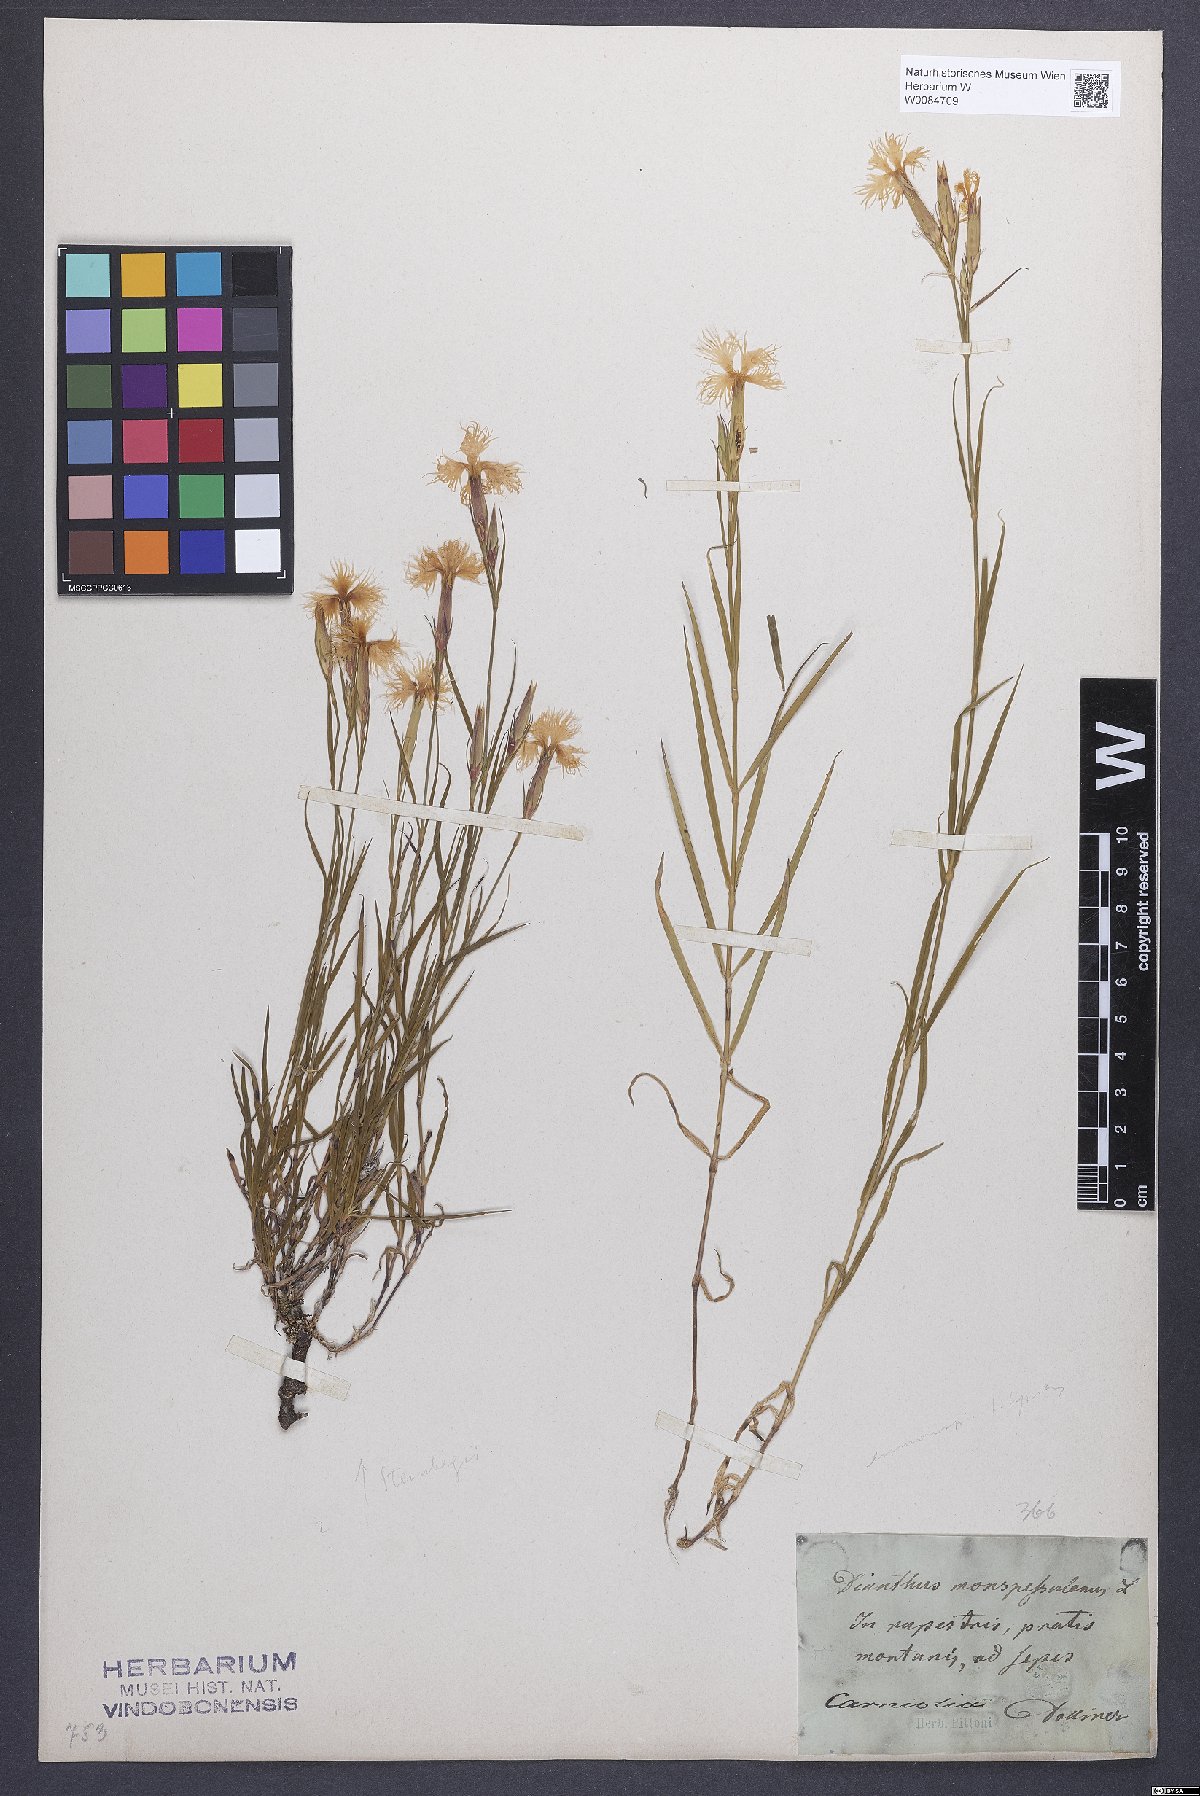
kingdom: Plantae
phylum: Tracheophyta
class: Magnoliopsida
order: Caryophyllales
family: Caryophyllaceae
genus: Dianthus
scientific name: Dianthus hyssopifolius
